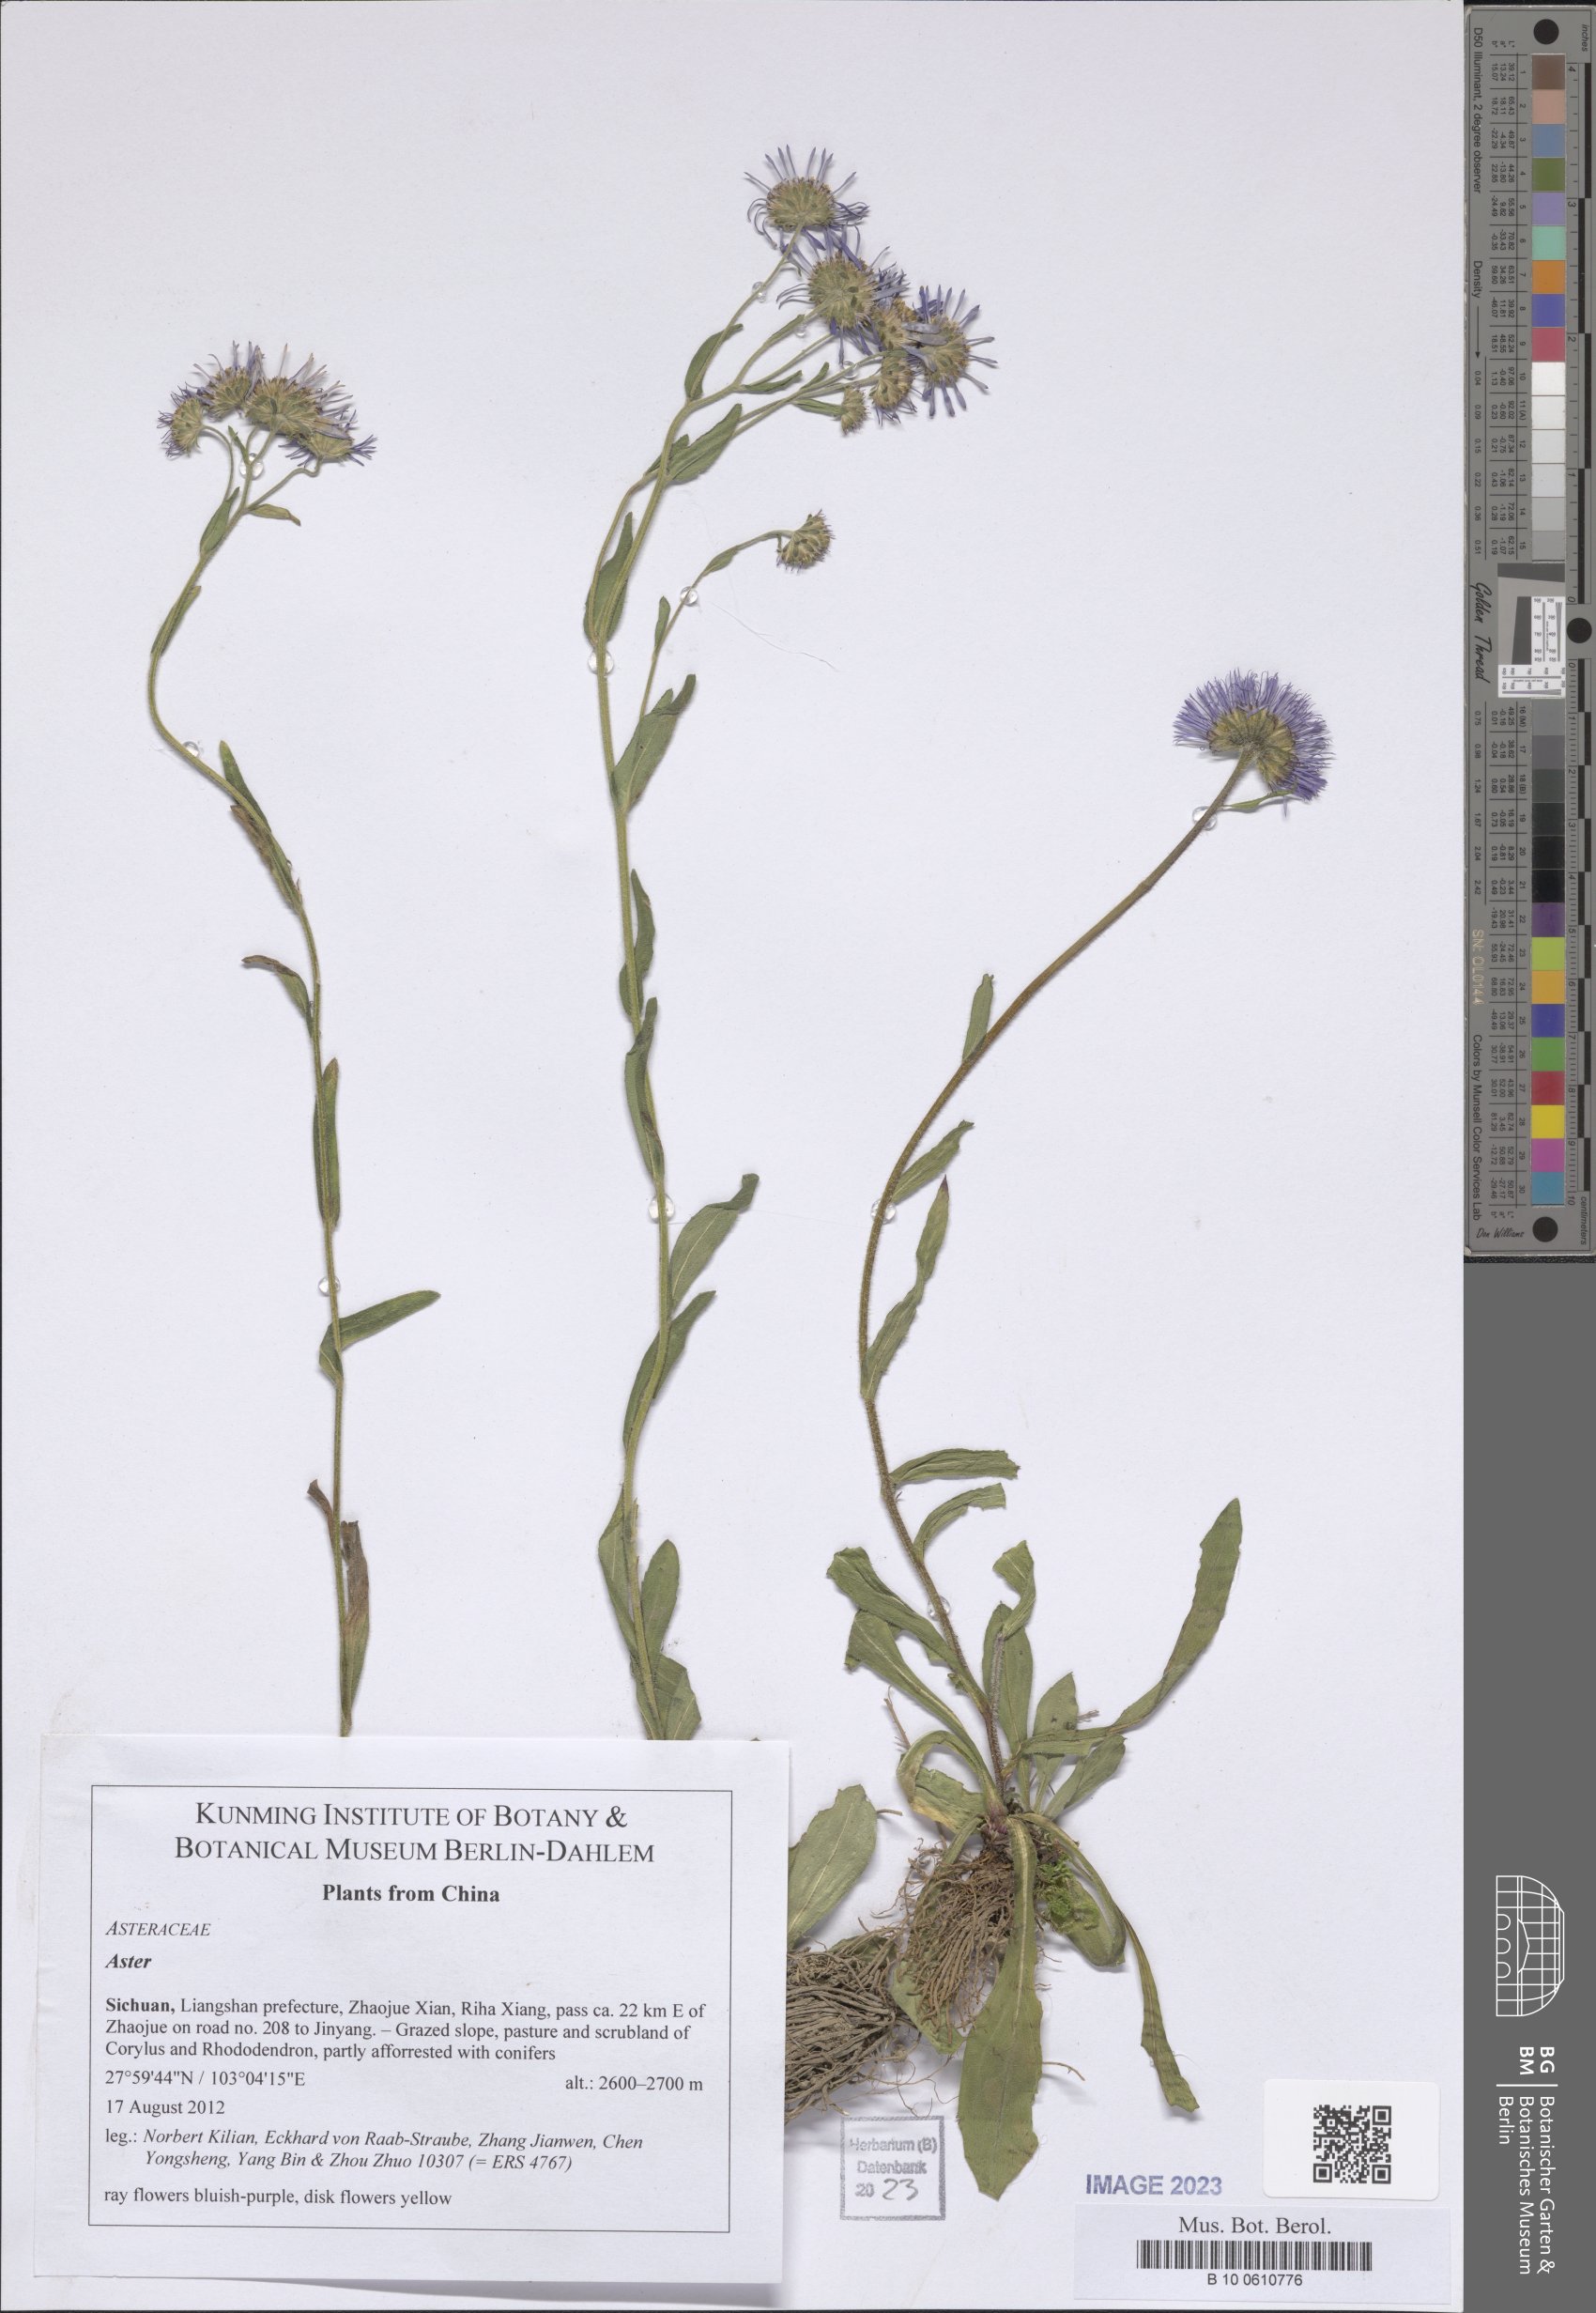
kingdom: Plantae
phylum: Tracheophyta
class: Magnoliopsida
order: Asterales
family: Asteraceae
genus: Aster
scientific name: Aster
